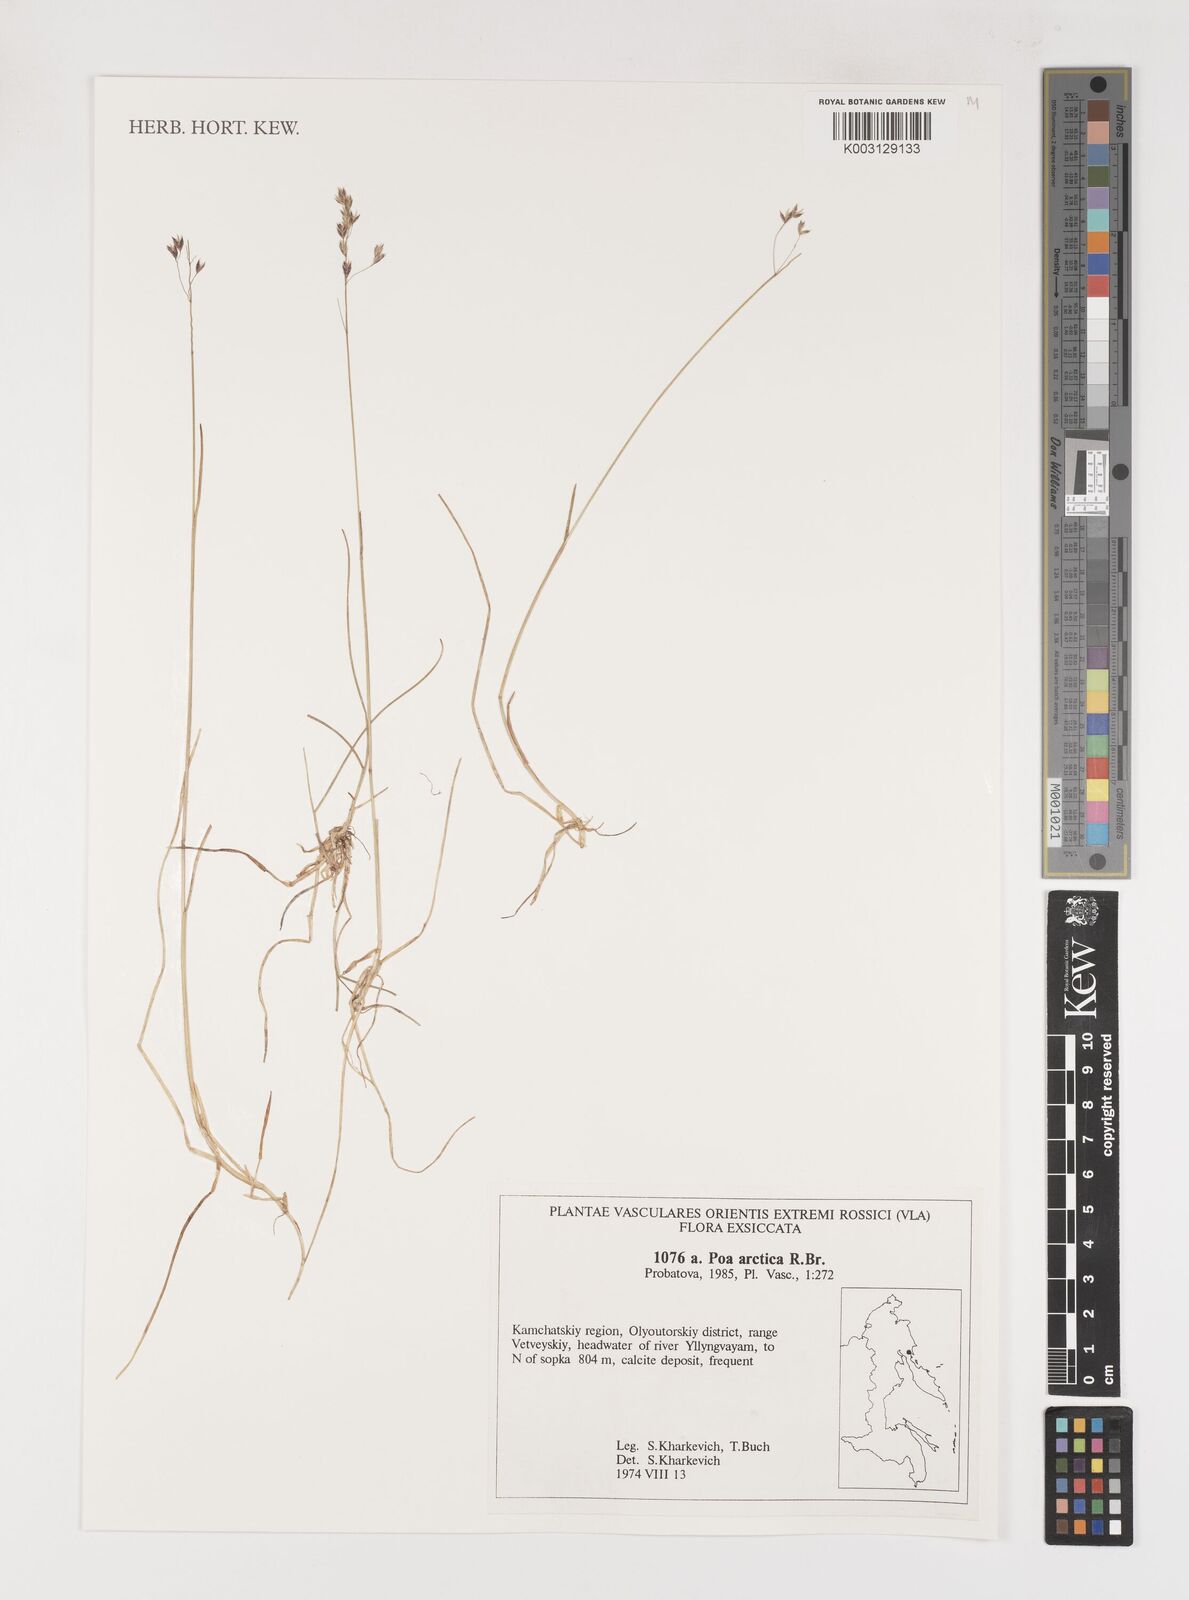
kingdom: Plantae
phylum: Tracheophyta
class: Liliopsida
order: Poales
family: Poaceae
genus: Poa
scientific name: Poa arctica
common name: Arctic bluegrass
